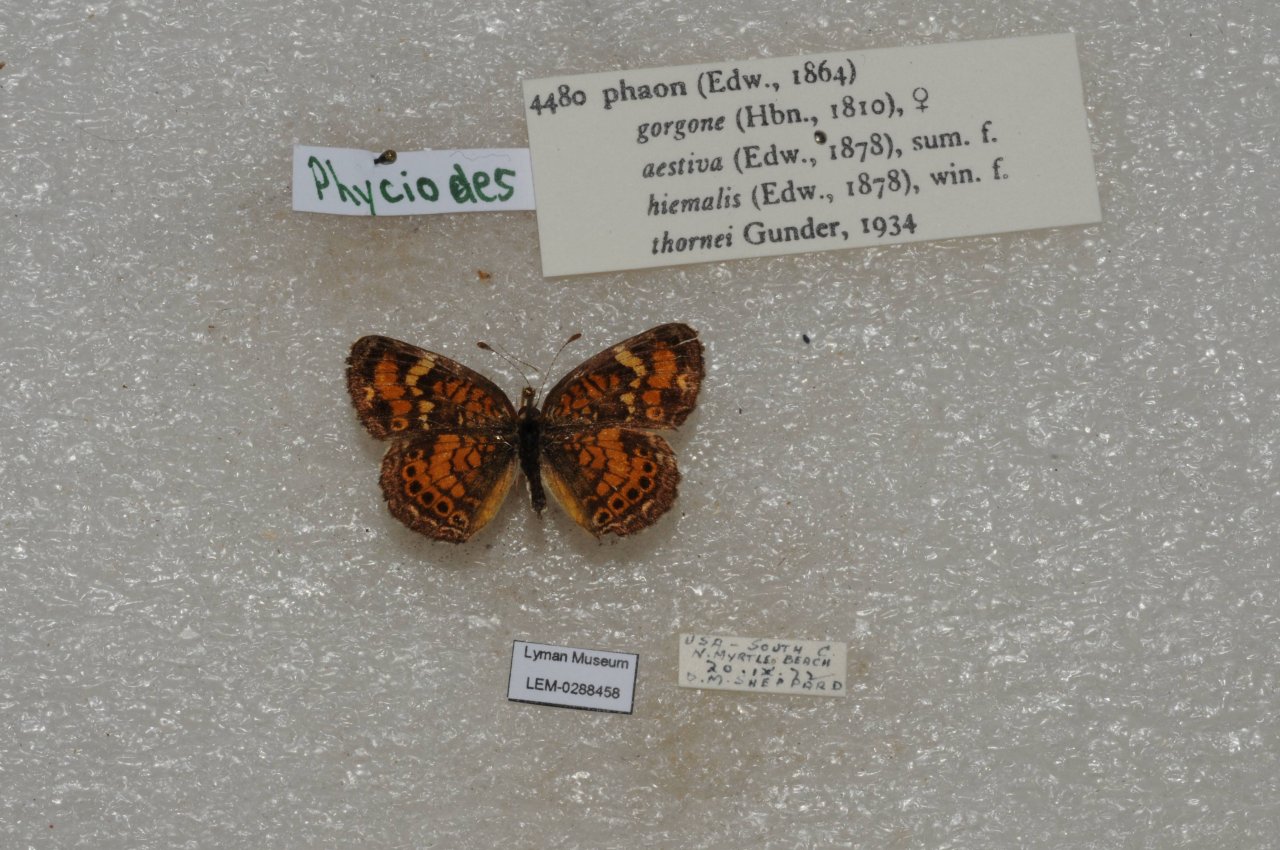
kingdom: Animalia
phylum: Arthropoda
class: Insecta
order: Lepidoptera
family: Nymphalidae
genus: Phyciodes
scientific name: Phyciodes phaon
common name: Phaon Crescent
